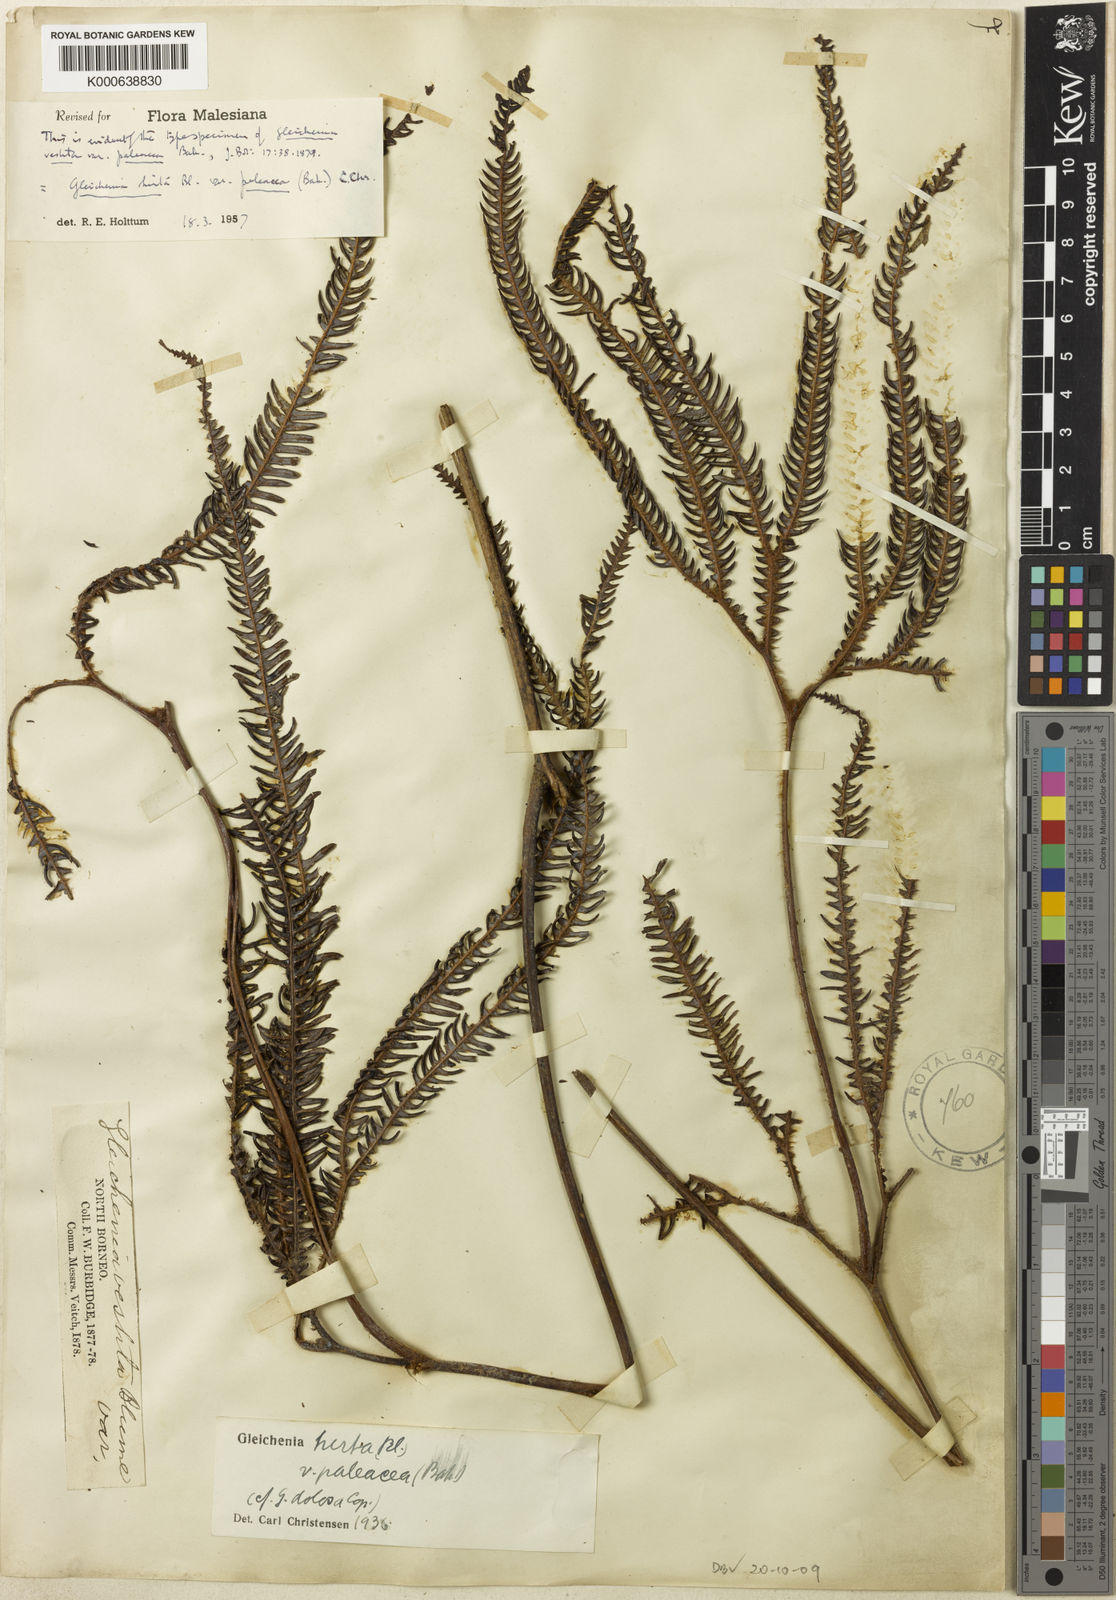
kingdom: Plantae
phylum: Tracheophyta
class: Polypodiopsida
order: Gleicheniales
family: Gleicheniaceae
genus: Sticherus
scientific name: Sticherus hirtus
